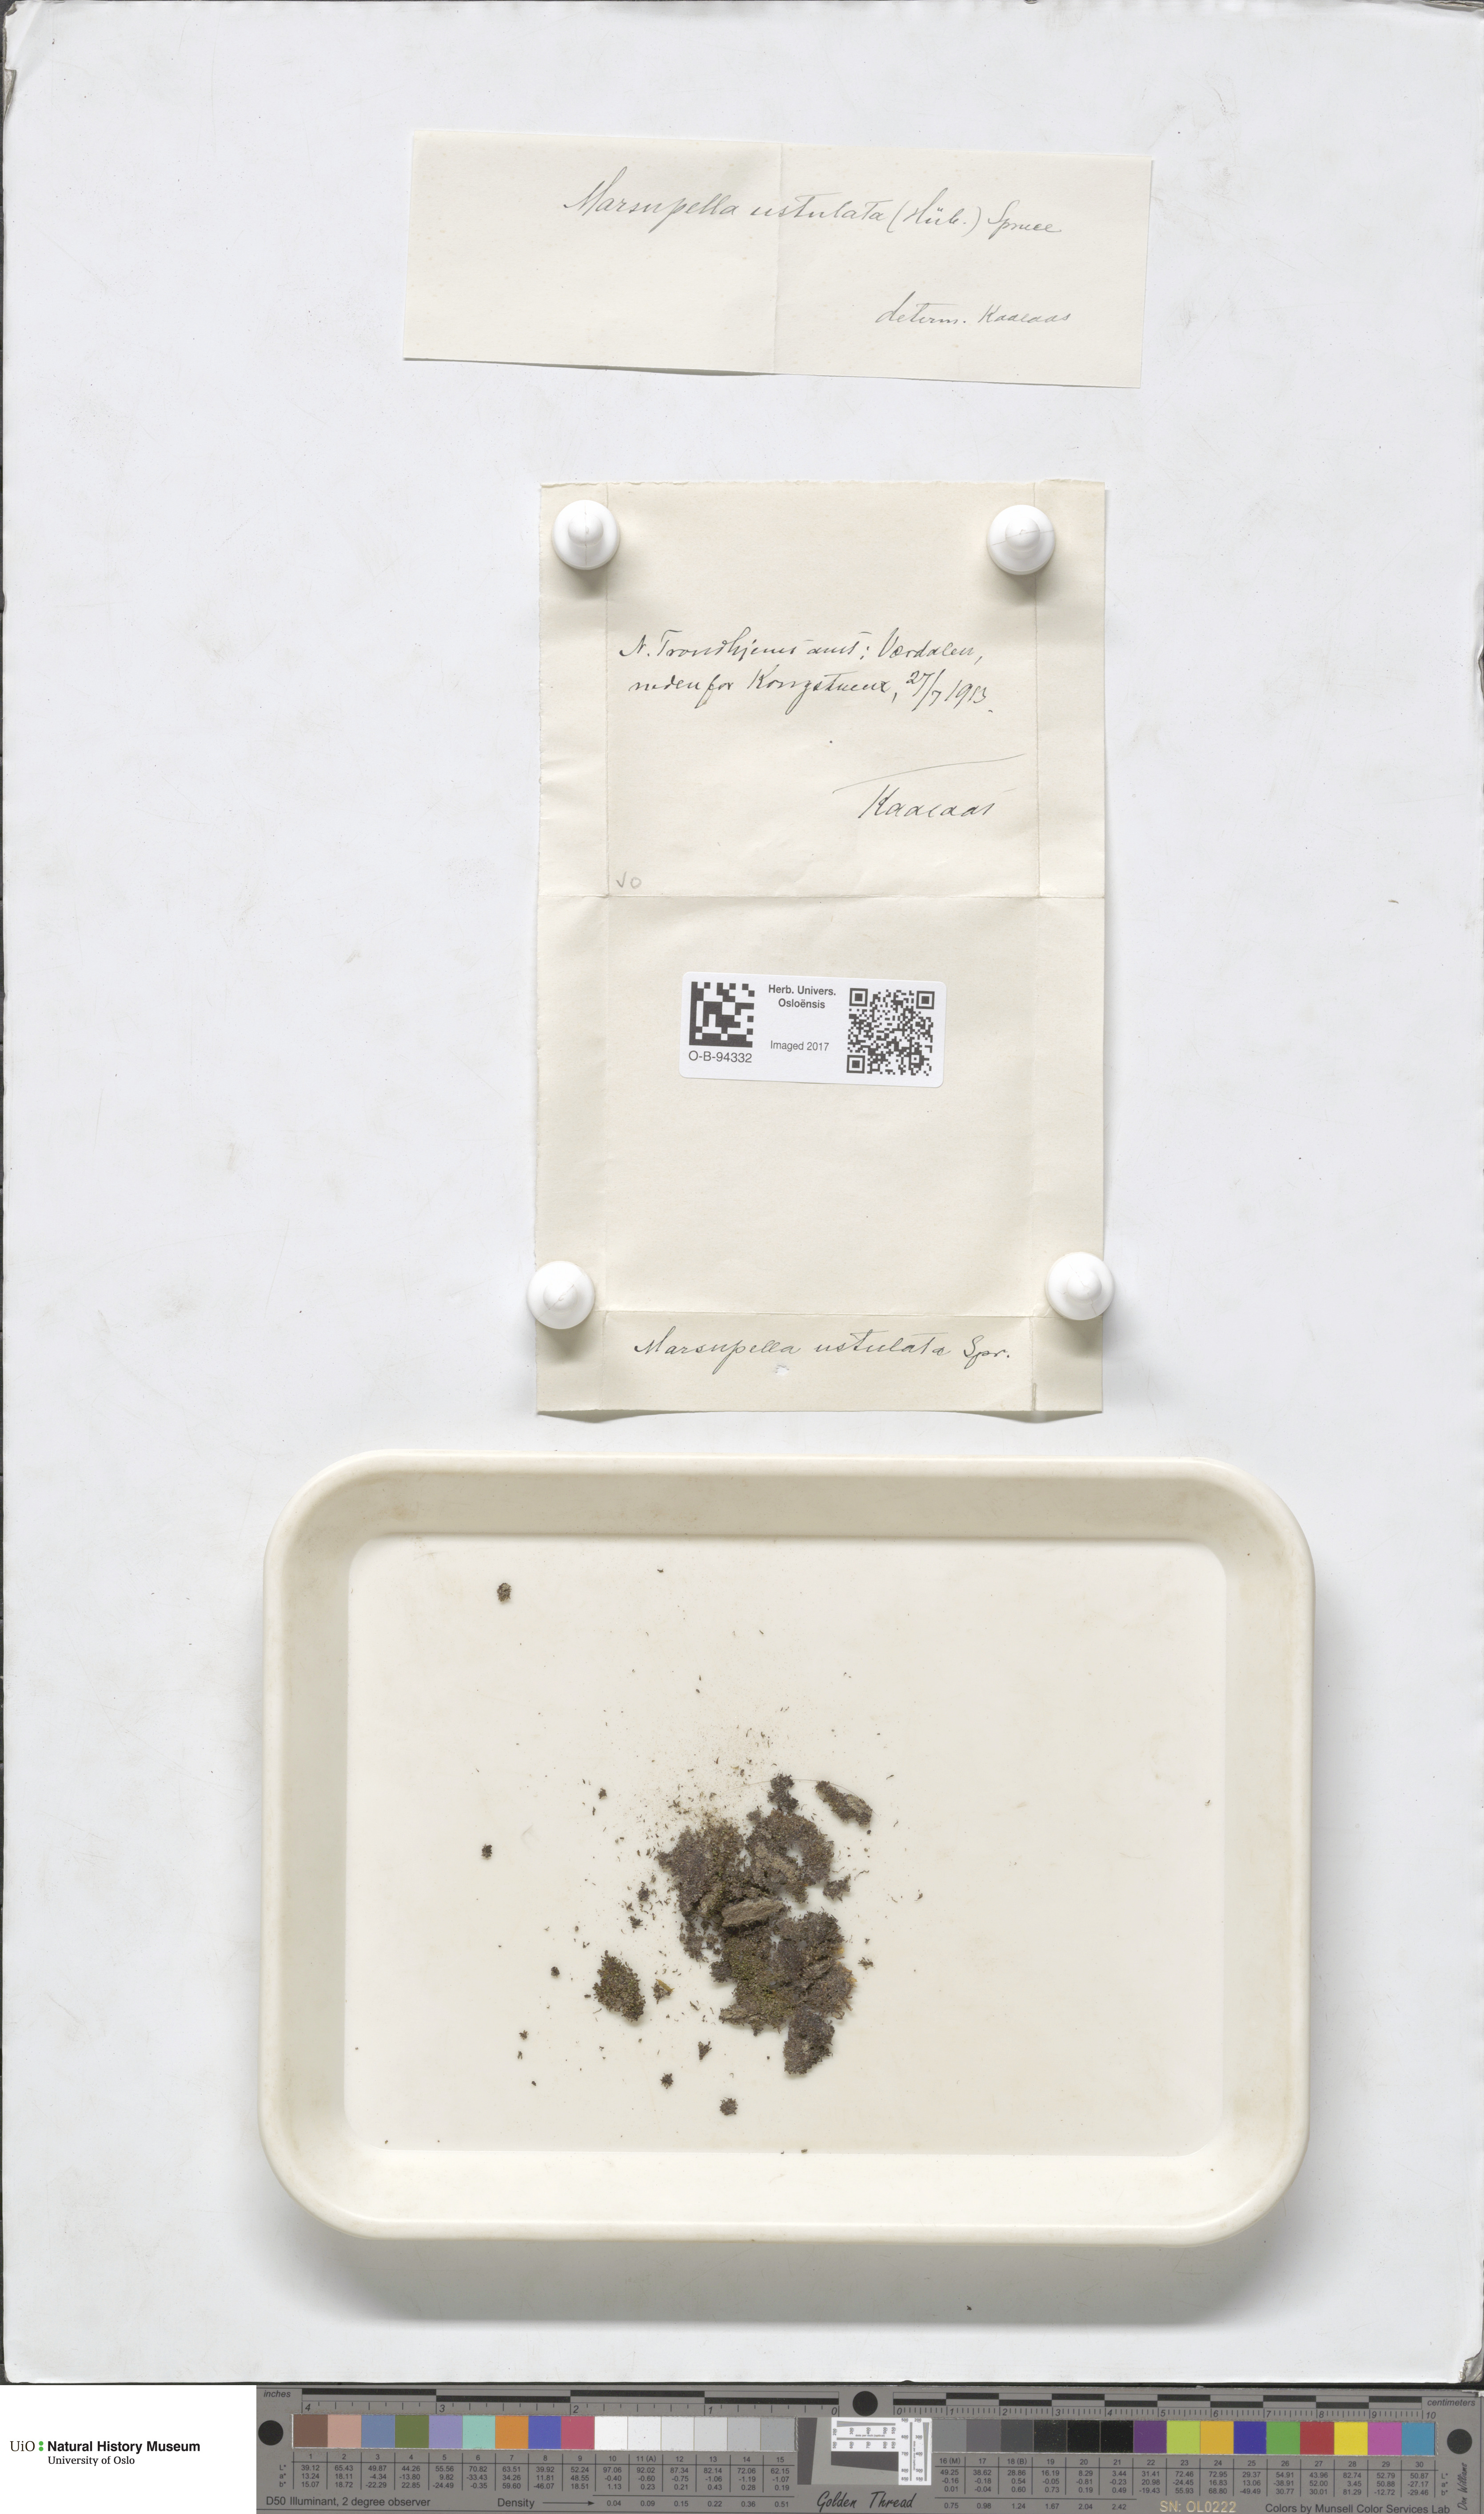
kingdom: Plantae
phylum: Marchantiophyta
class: Jungermanniopsida
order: Jungermanniales
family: Gymnomitriaceae
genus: Marsupella
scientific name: Marsupella sprucei
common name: Spruce s rustwort
